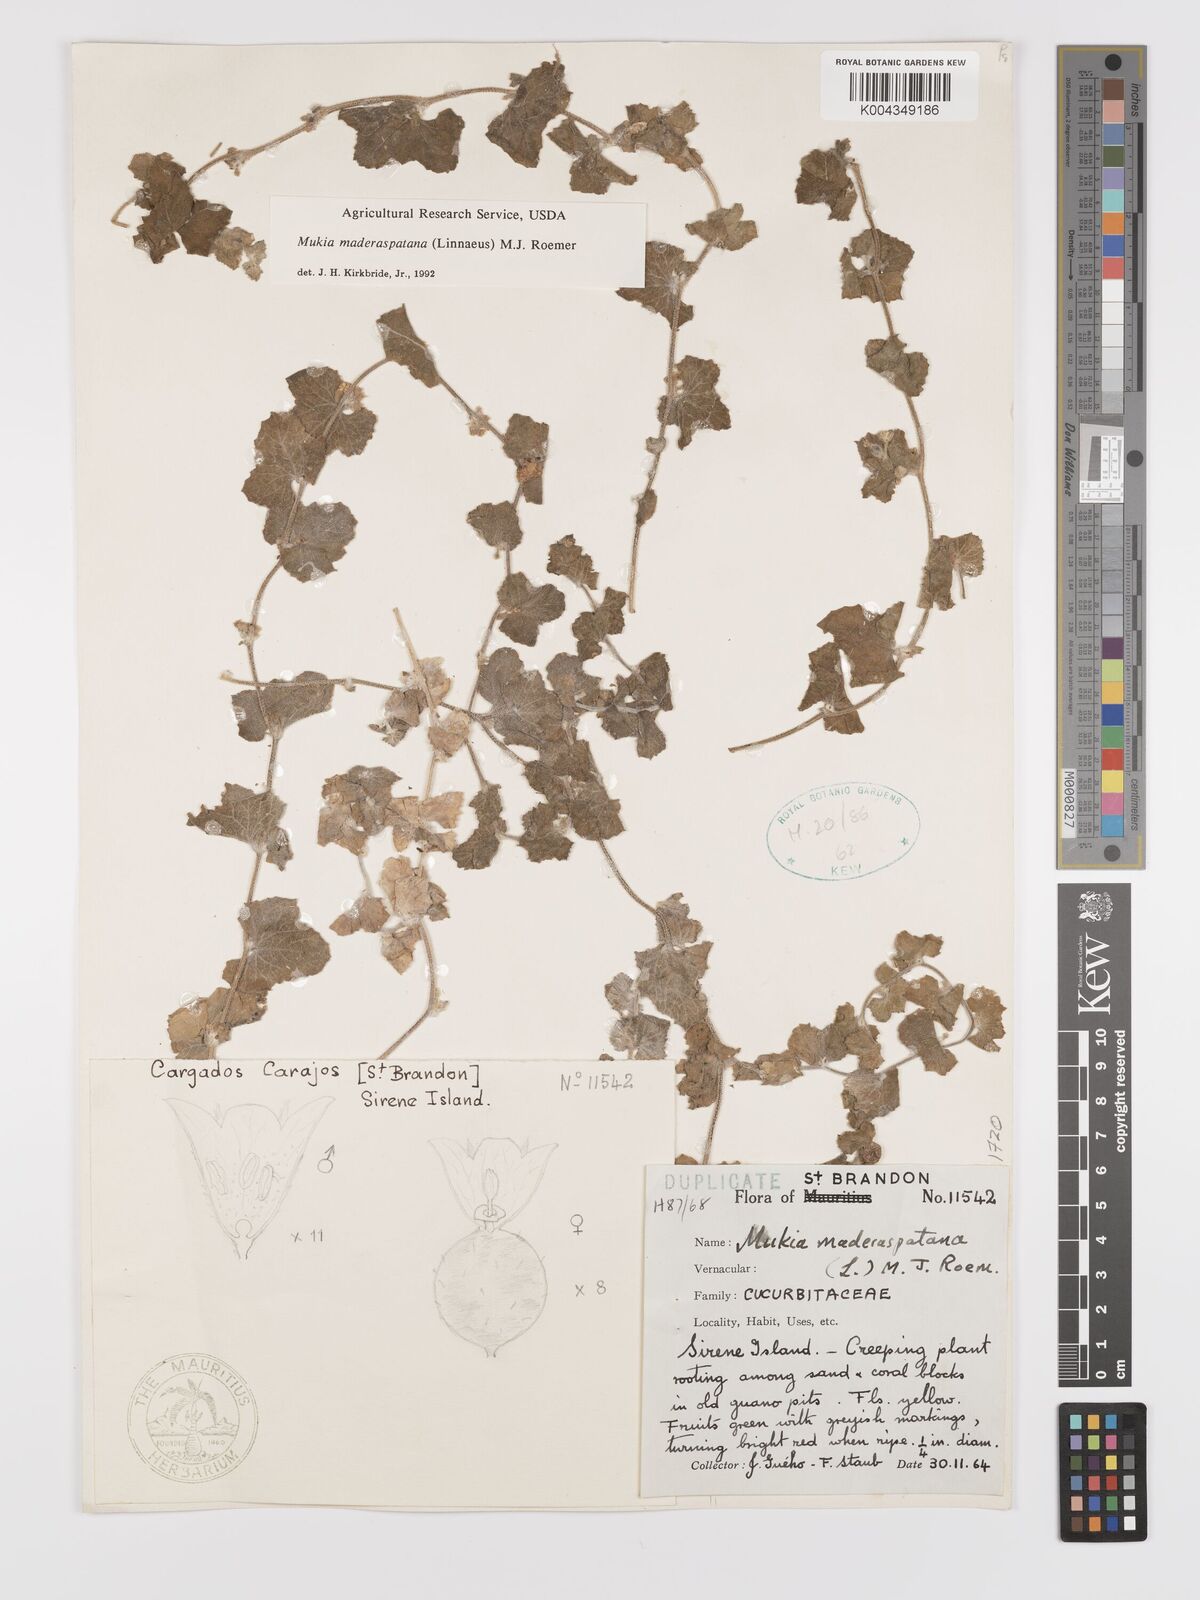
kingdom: Plantae
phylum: Tracheophyta
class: Magnoliopsida
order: Cucurbitales
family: Cucurbitaceae
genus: Cucumis
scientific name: Cucumis maderaspatanus
